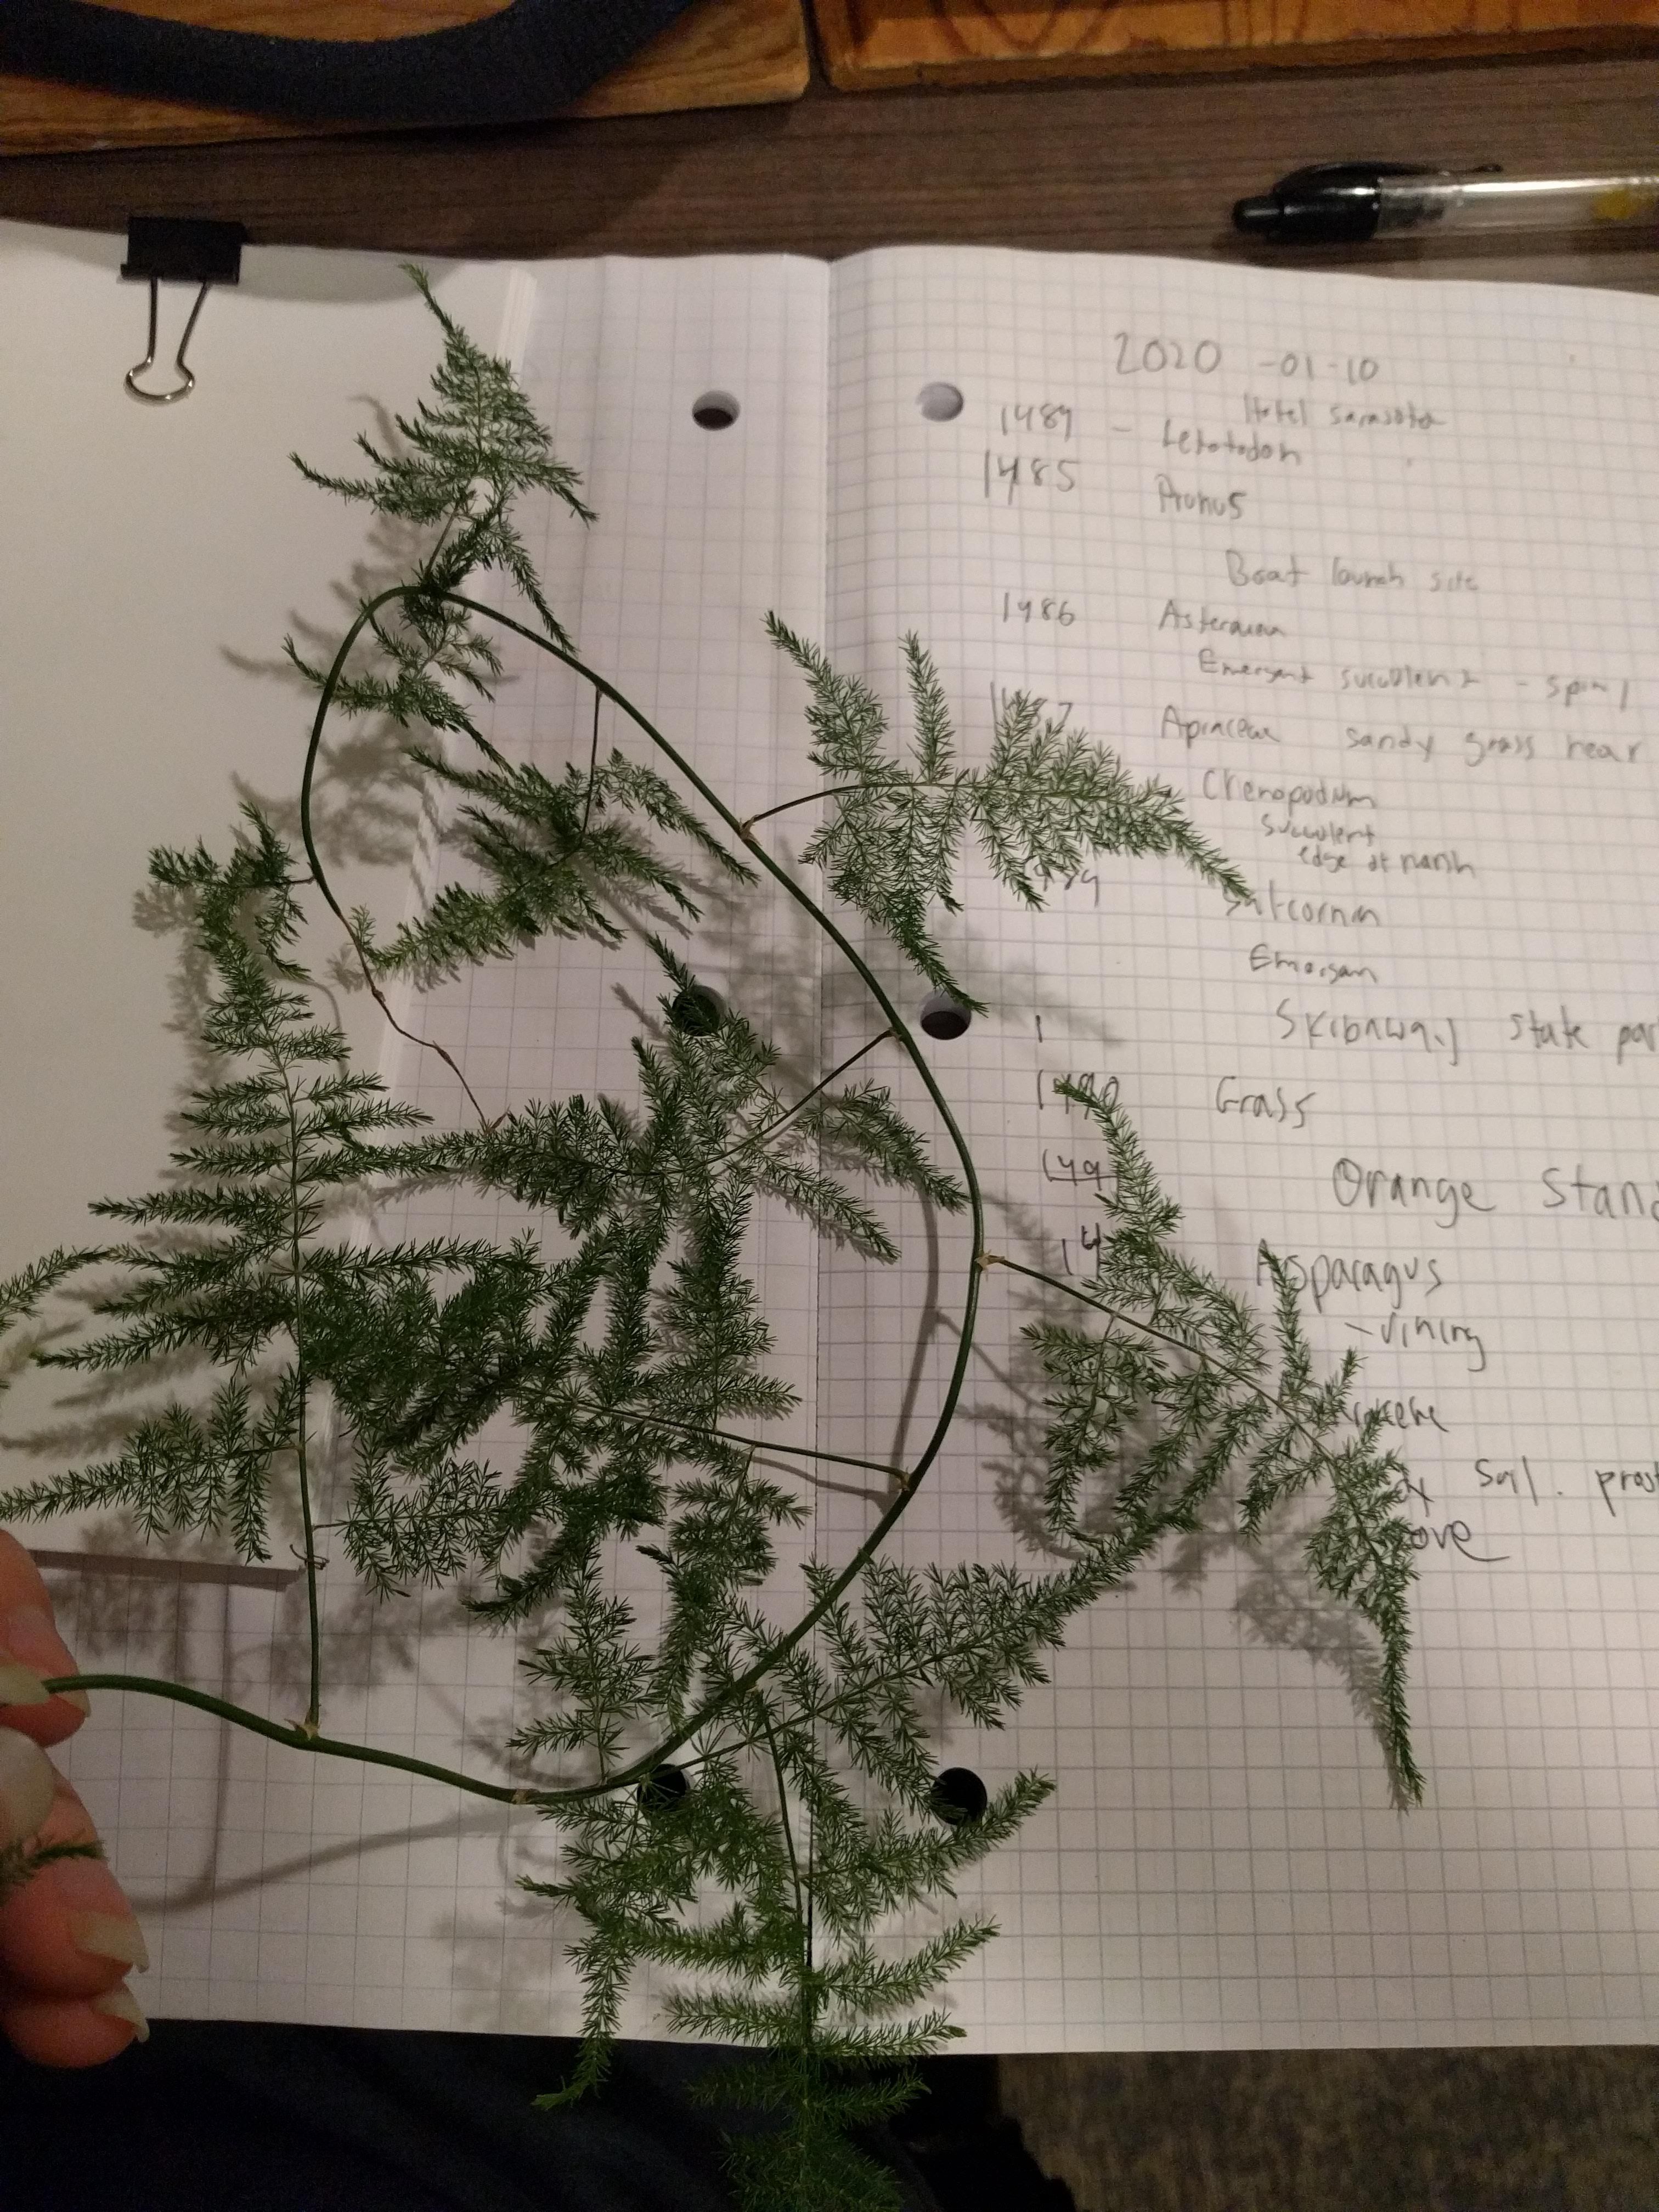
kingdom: Plantae
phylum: Tracheophyta
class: Liliopsida
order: Asparagales
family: Asparagaceae
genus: Asparagus
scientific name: Asparagus setaceus
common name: Common asparagus fern
